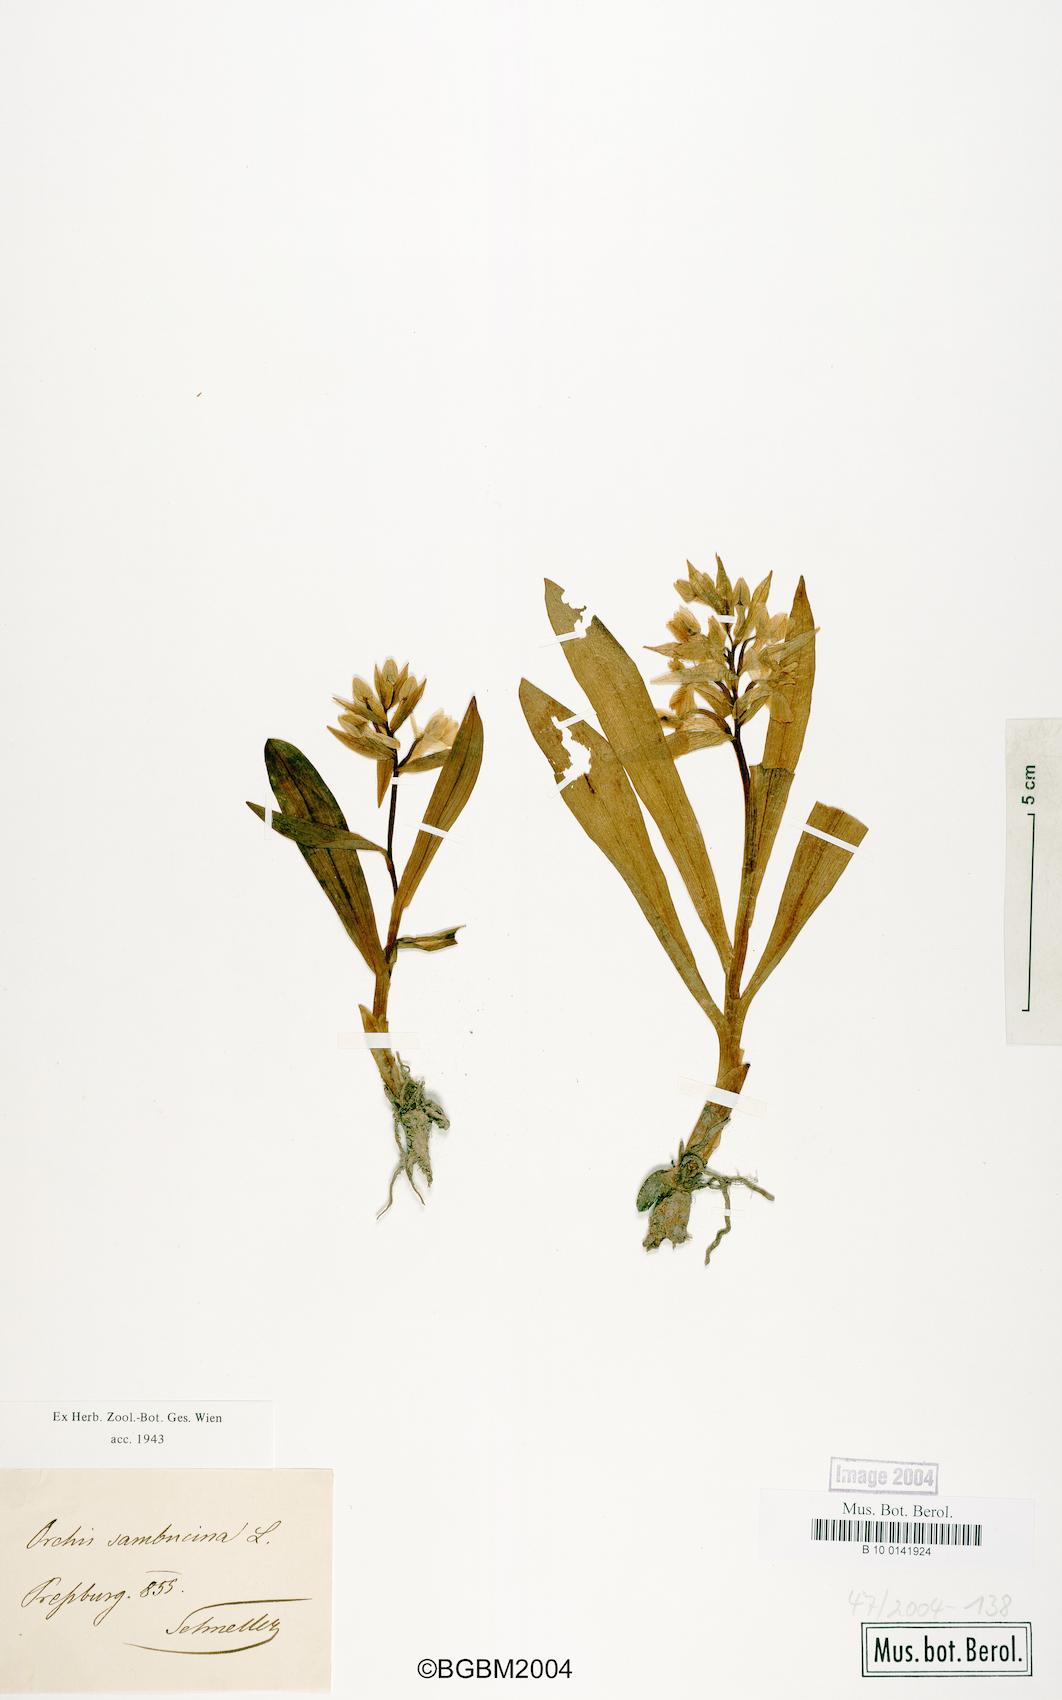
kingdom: Plantae
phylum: Tracheophyta
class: Liliopsida
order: Asparagales
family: Orchidaceae
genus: Dactylorhiza
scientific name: Dactylorhiza sambucina
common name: Elder-flowered orchid
